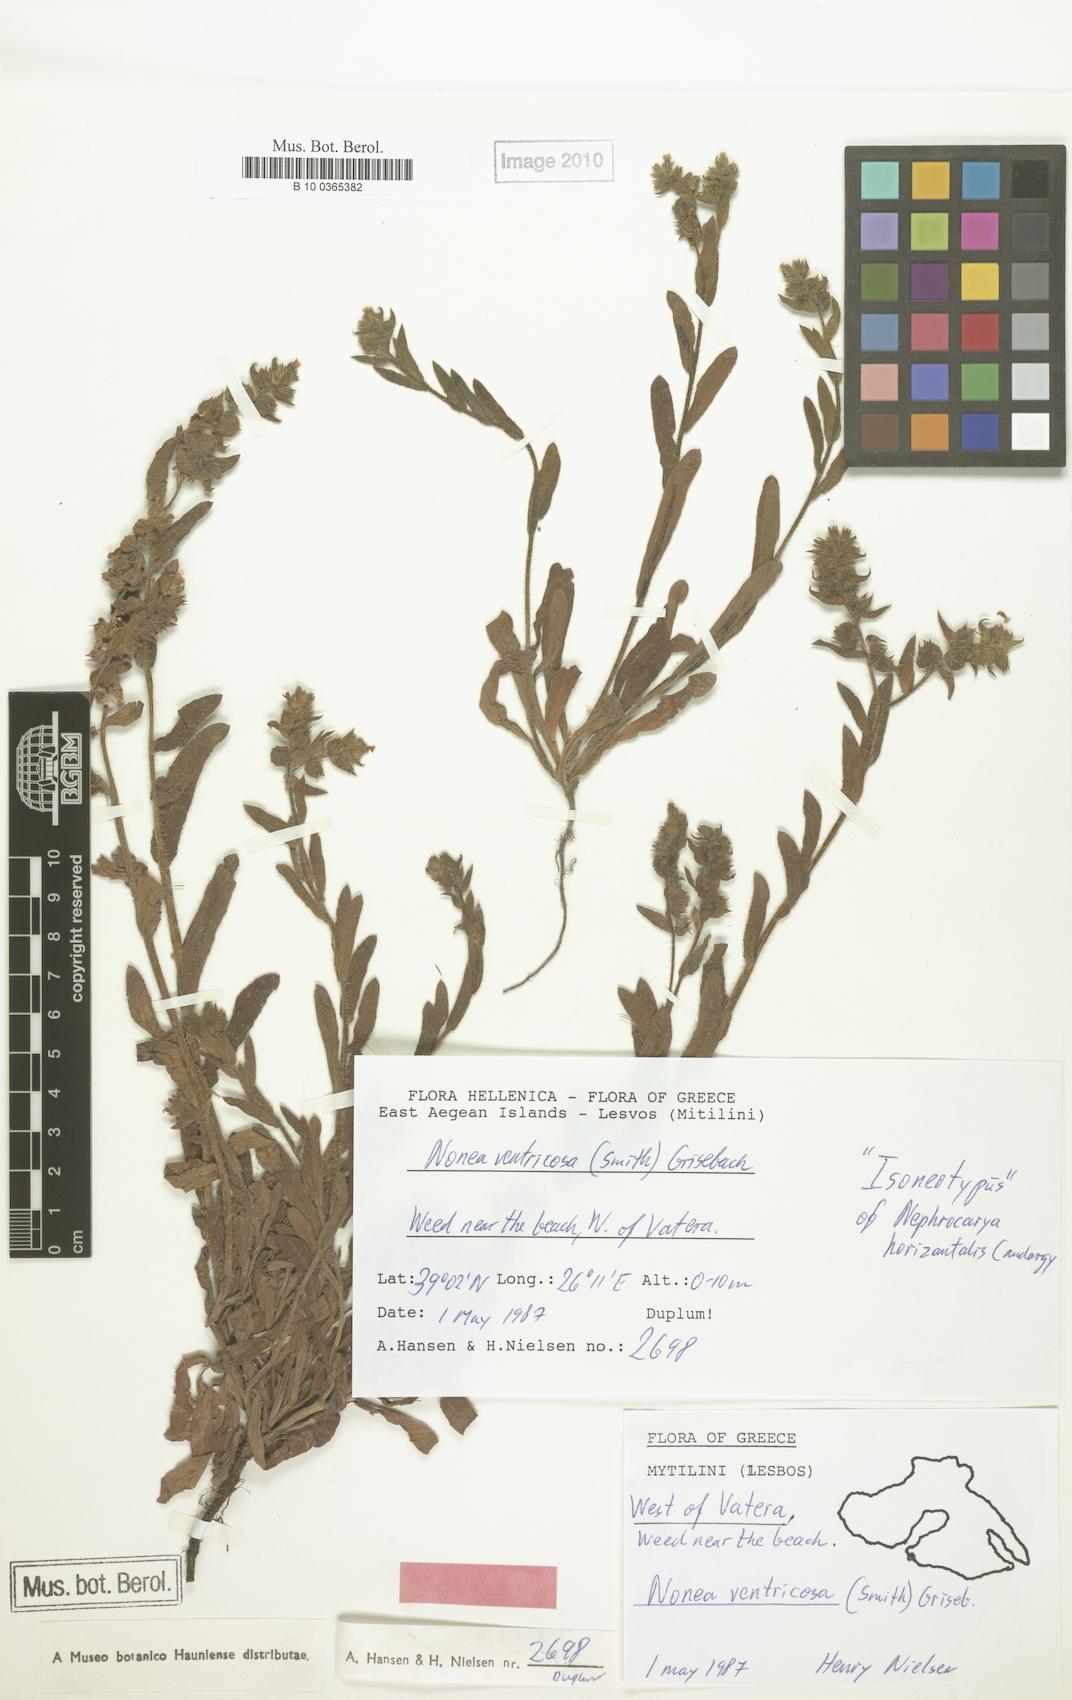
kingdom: Plantae
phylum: Tracheophyta
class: Magnoliopsida
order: Boraginales
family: Boraginaceae
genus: Nonea
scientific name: Nonea echioides
